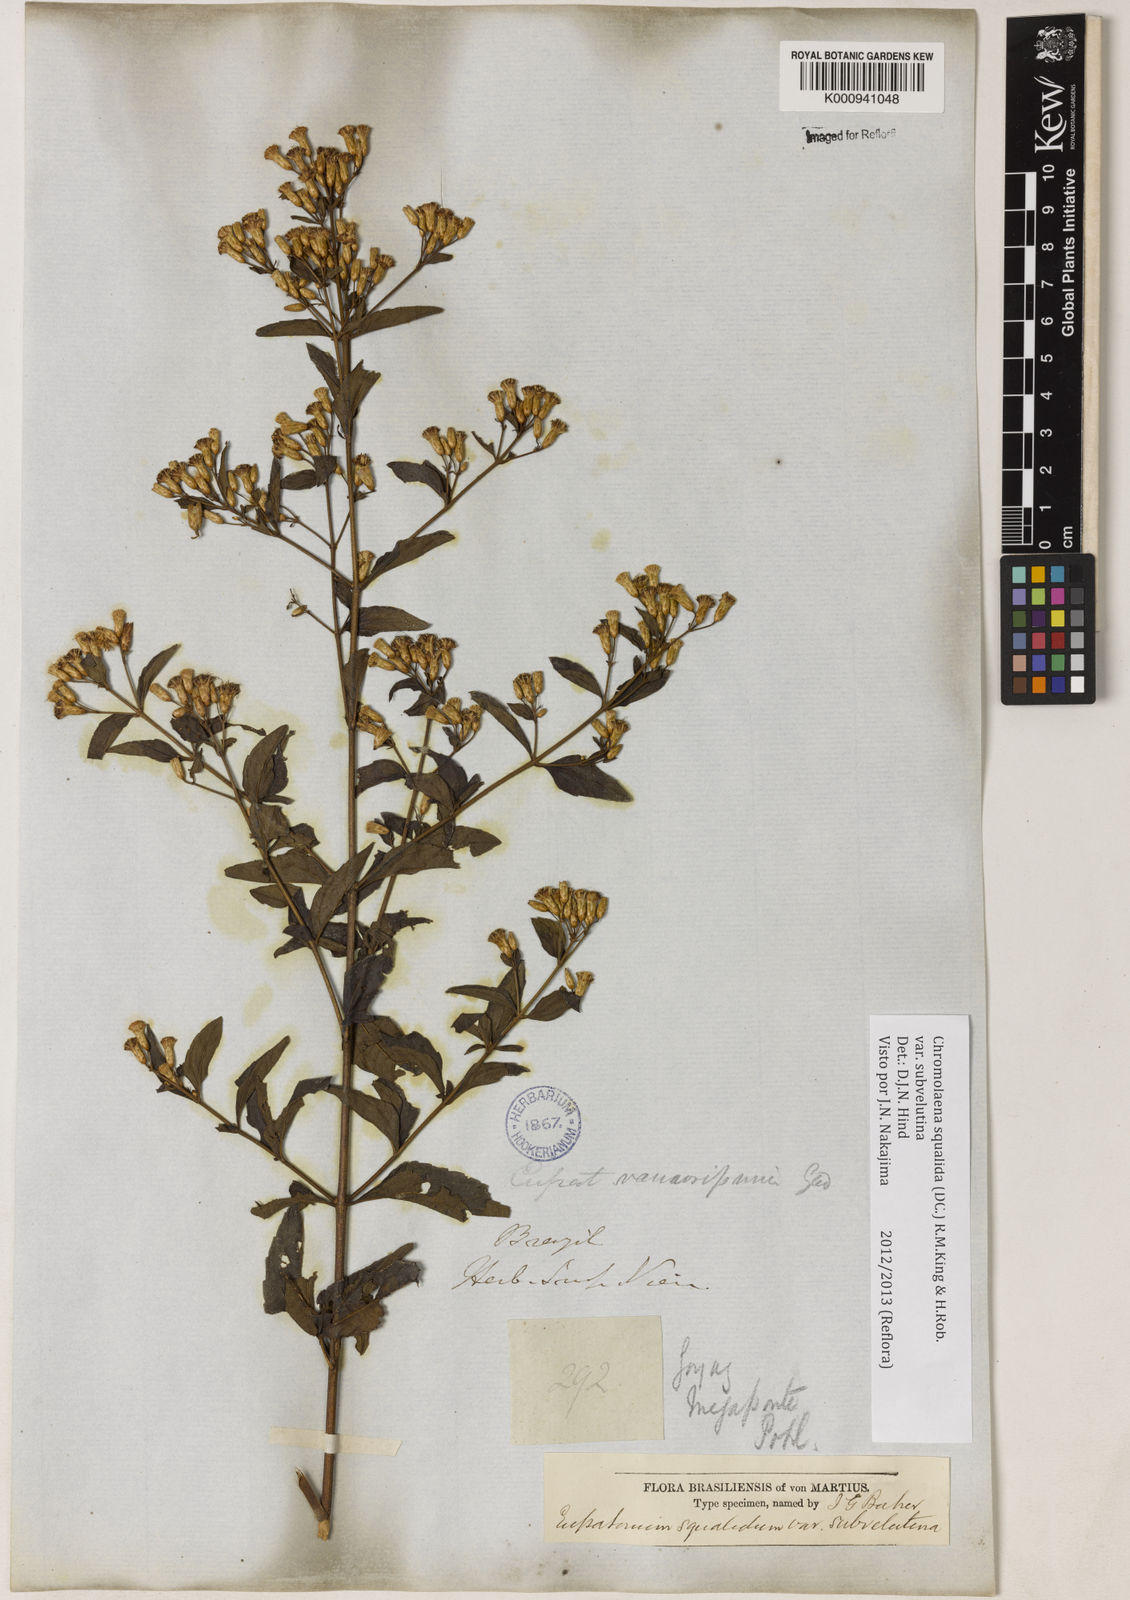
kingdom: Plantae
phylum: Tracheophyta
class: Magnoliopsida
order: Asterales
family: Asteraceae
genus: Chromolaena
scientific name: Chromolaena squalida
